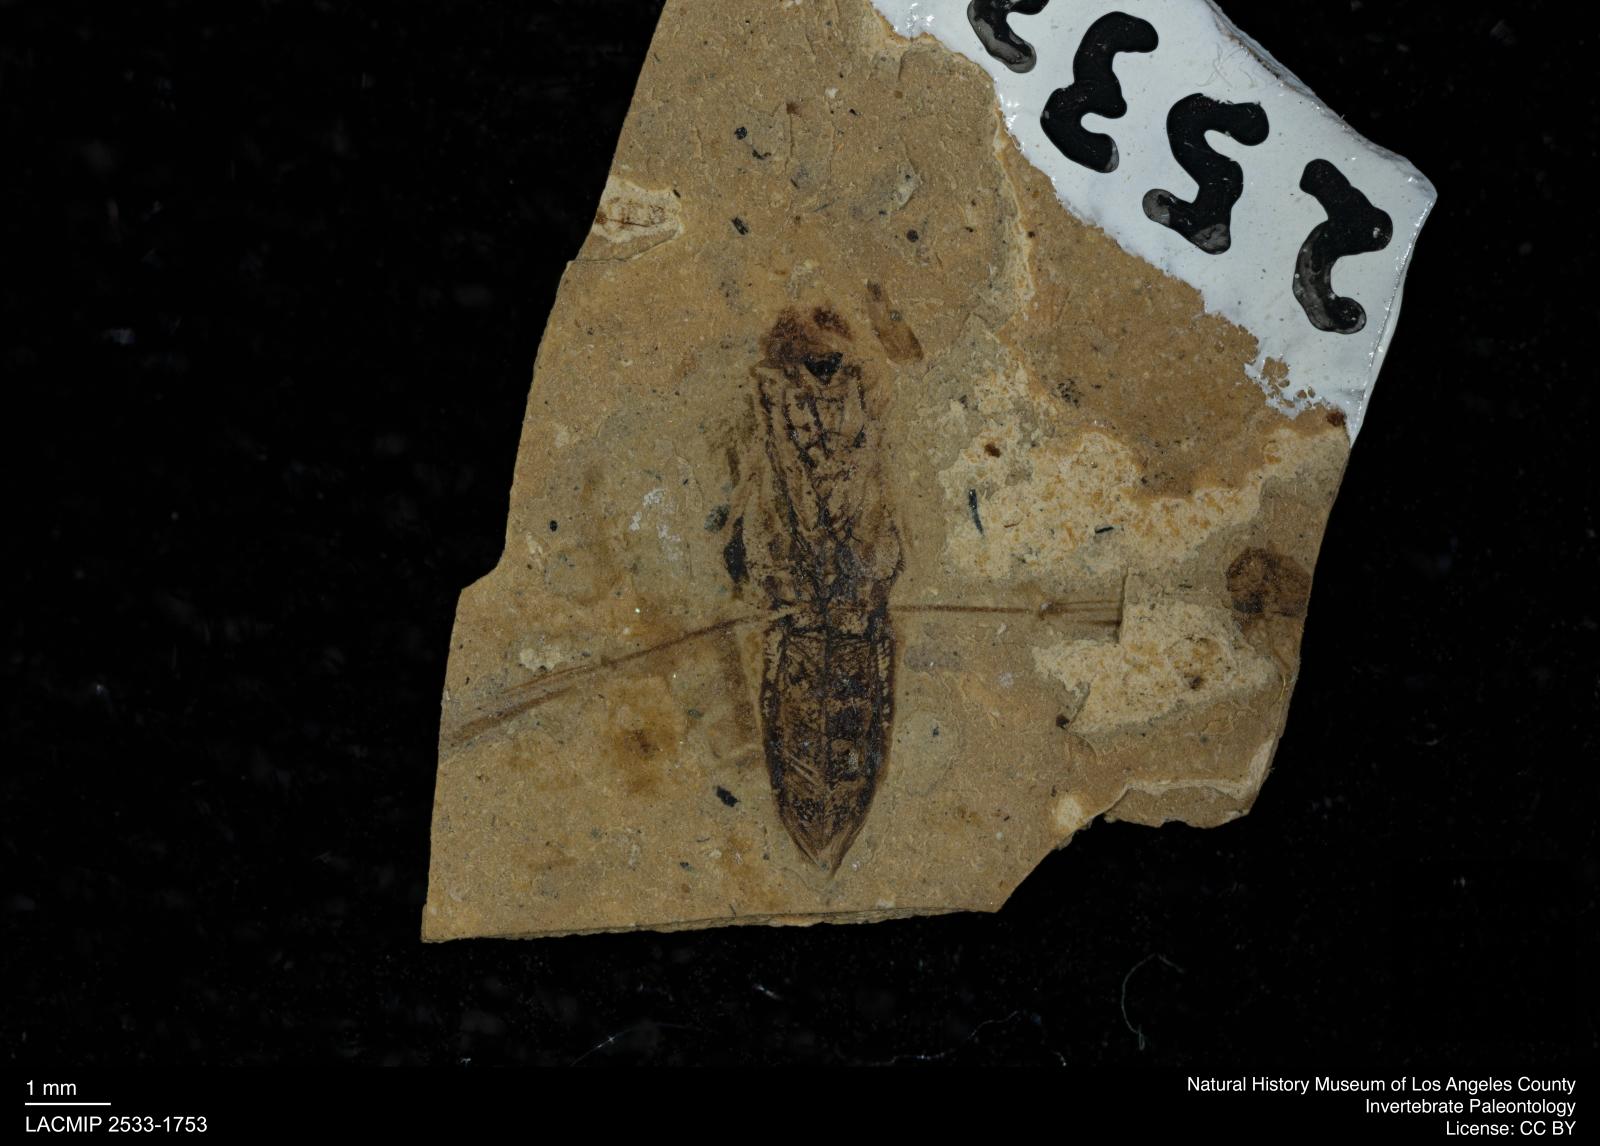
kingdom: Animalia
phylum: Arthropoda
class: Insecta
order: Hemiptera
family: Notonectidae
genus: Notonecta
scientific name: Notonecta
